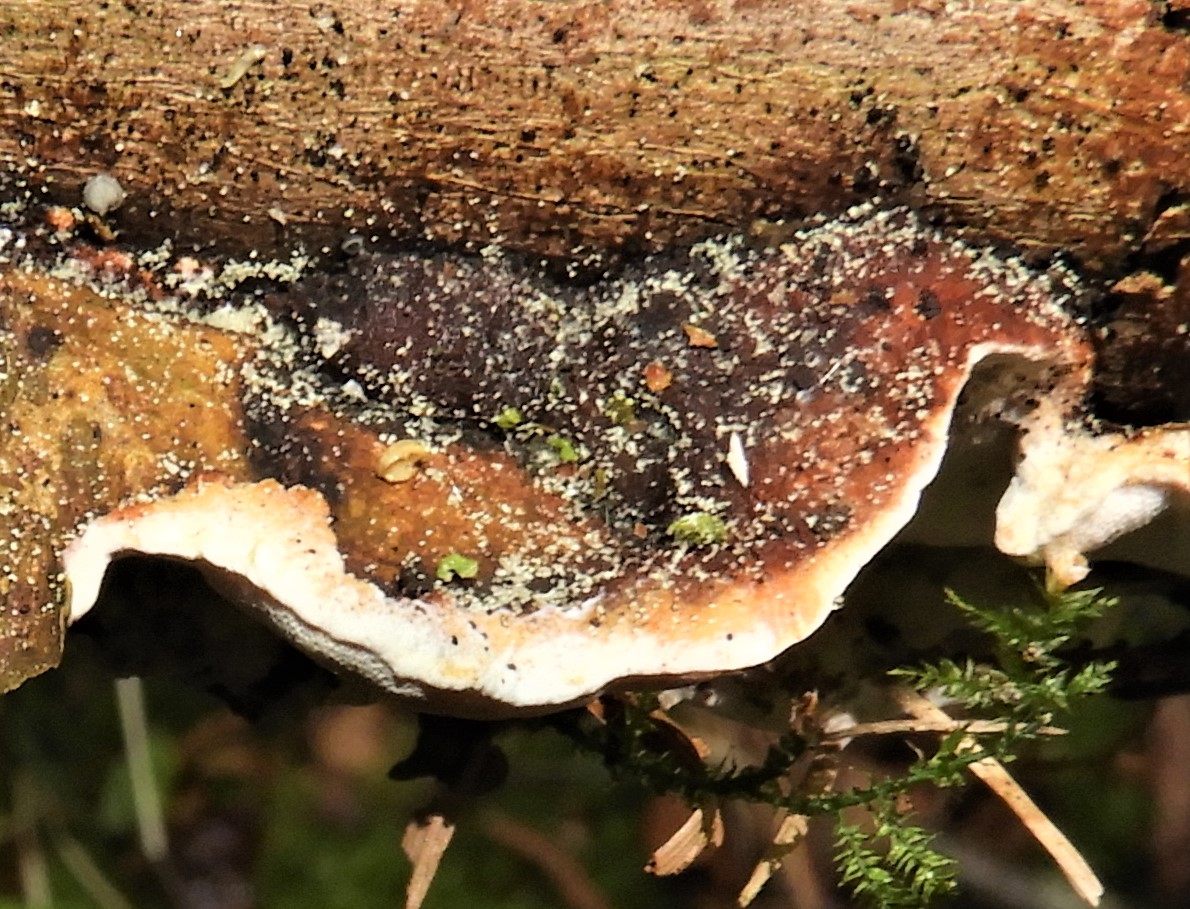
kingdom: Fungi
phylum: Basidiomycota
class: Agaricomycetes
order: Polyporales
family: Incrustoporiaceae
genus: Skeletocutis
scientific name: Skeletocutis nemoralis
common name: stor krystalporesvamp
